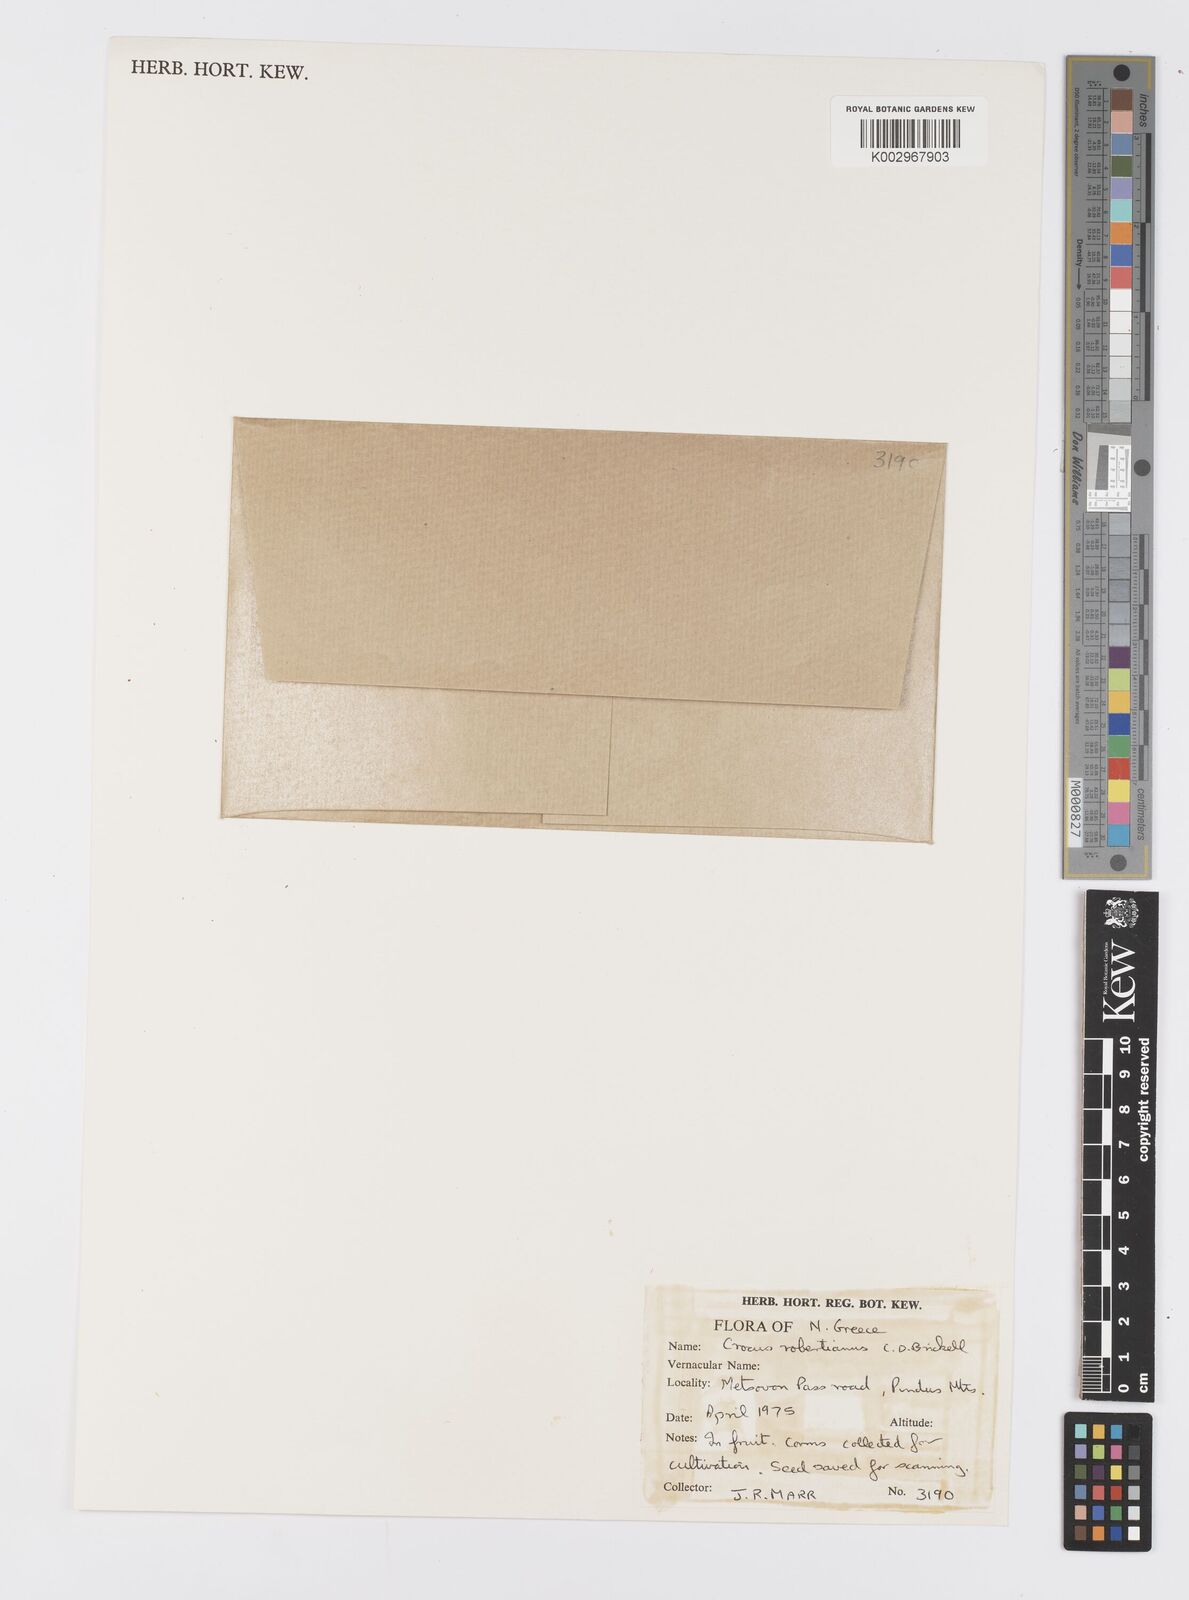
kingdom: Plantae
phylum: Tracheophyta
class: Liliopsida
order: Asparagales
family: Iridaceae
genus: Crocus
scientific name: Crocus robertianus
